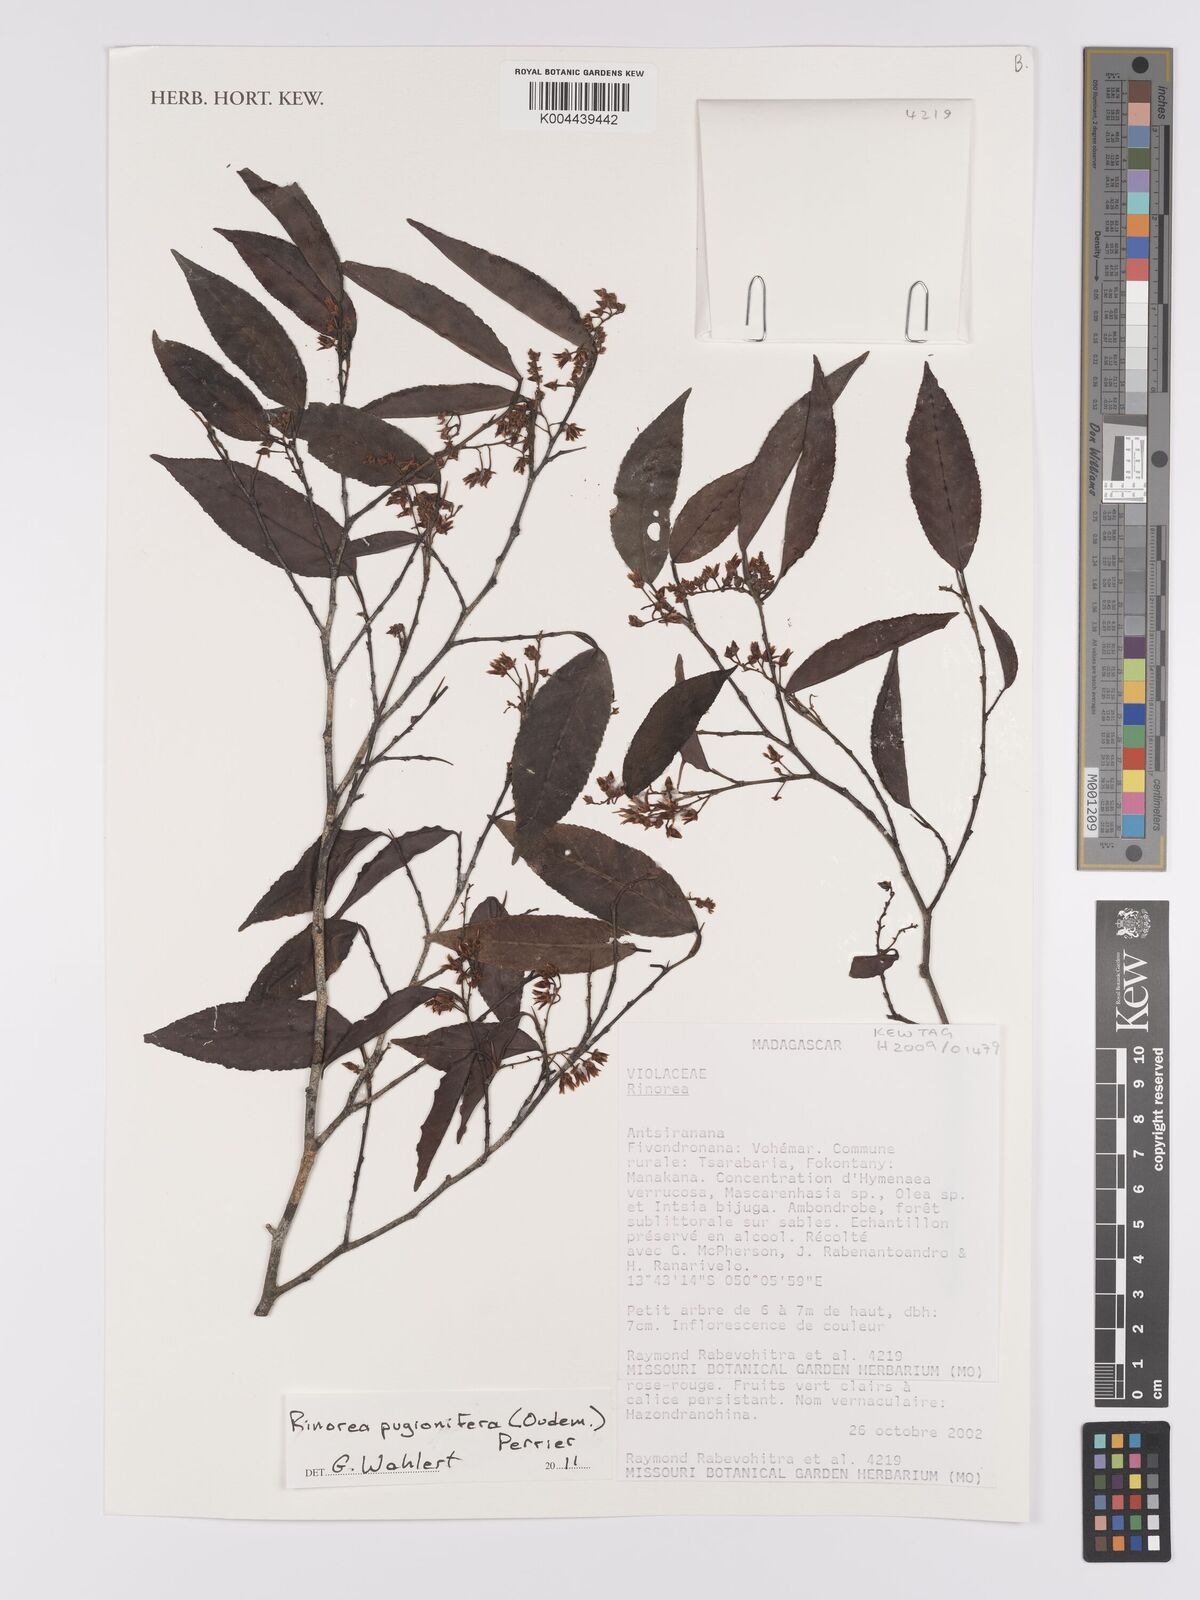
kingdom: Plantae
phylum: Tracheophyta
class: Magnoliopsida
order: Malpighiales
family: Violaceae
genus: Rinorea
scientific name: Rinorea pugionifera
